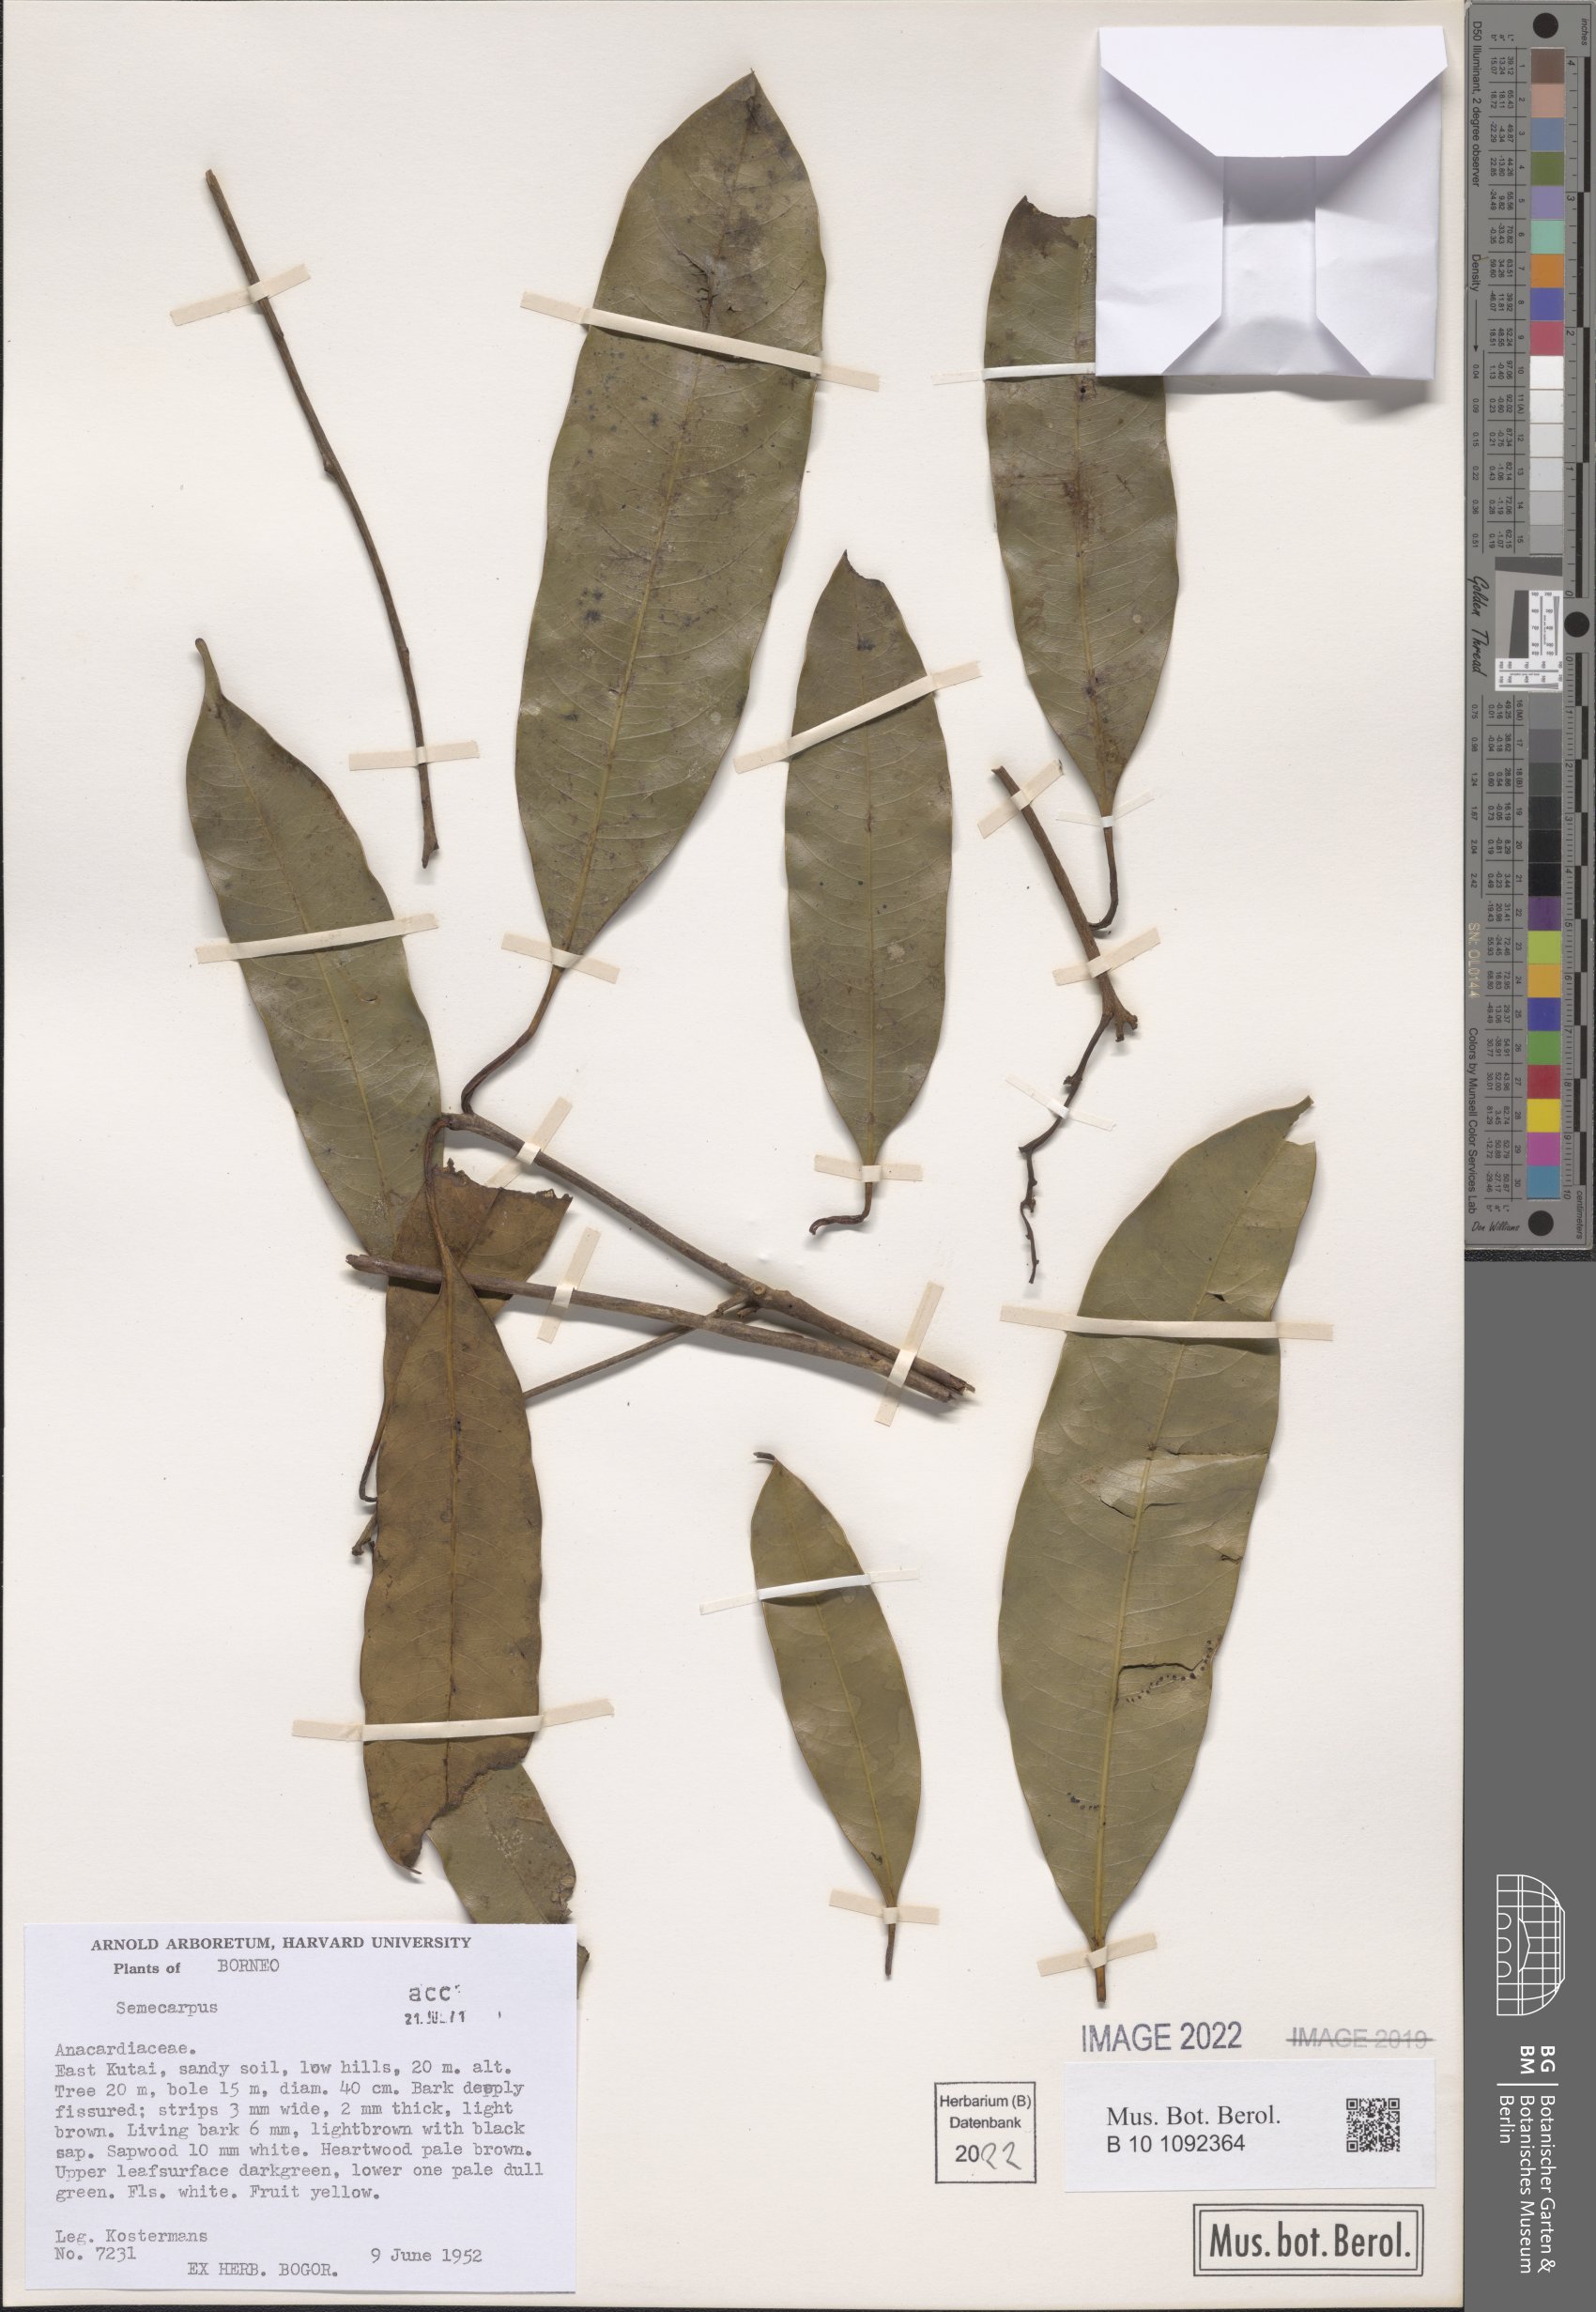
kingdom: Plantae
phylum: Tracheophyta
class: Magnoliopsida
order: Sapindales
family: Anacardiaceae
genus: Semecarpus
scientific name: Semecarpus
